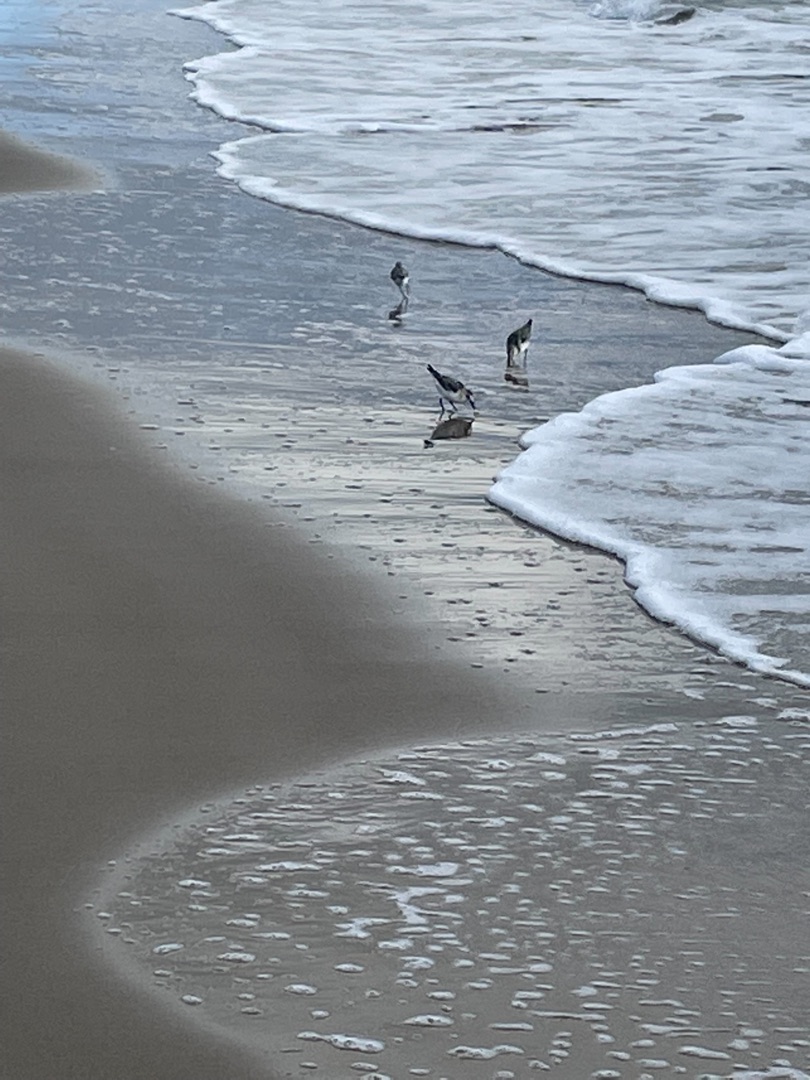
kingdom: Animalia
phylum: Chordata
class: Aves
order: Charadriiformes
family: Scolopacidae
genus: Calidris
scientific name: Calidris alba
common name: Sandløber
